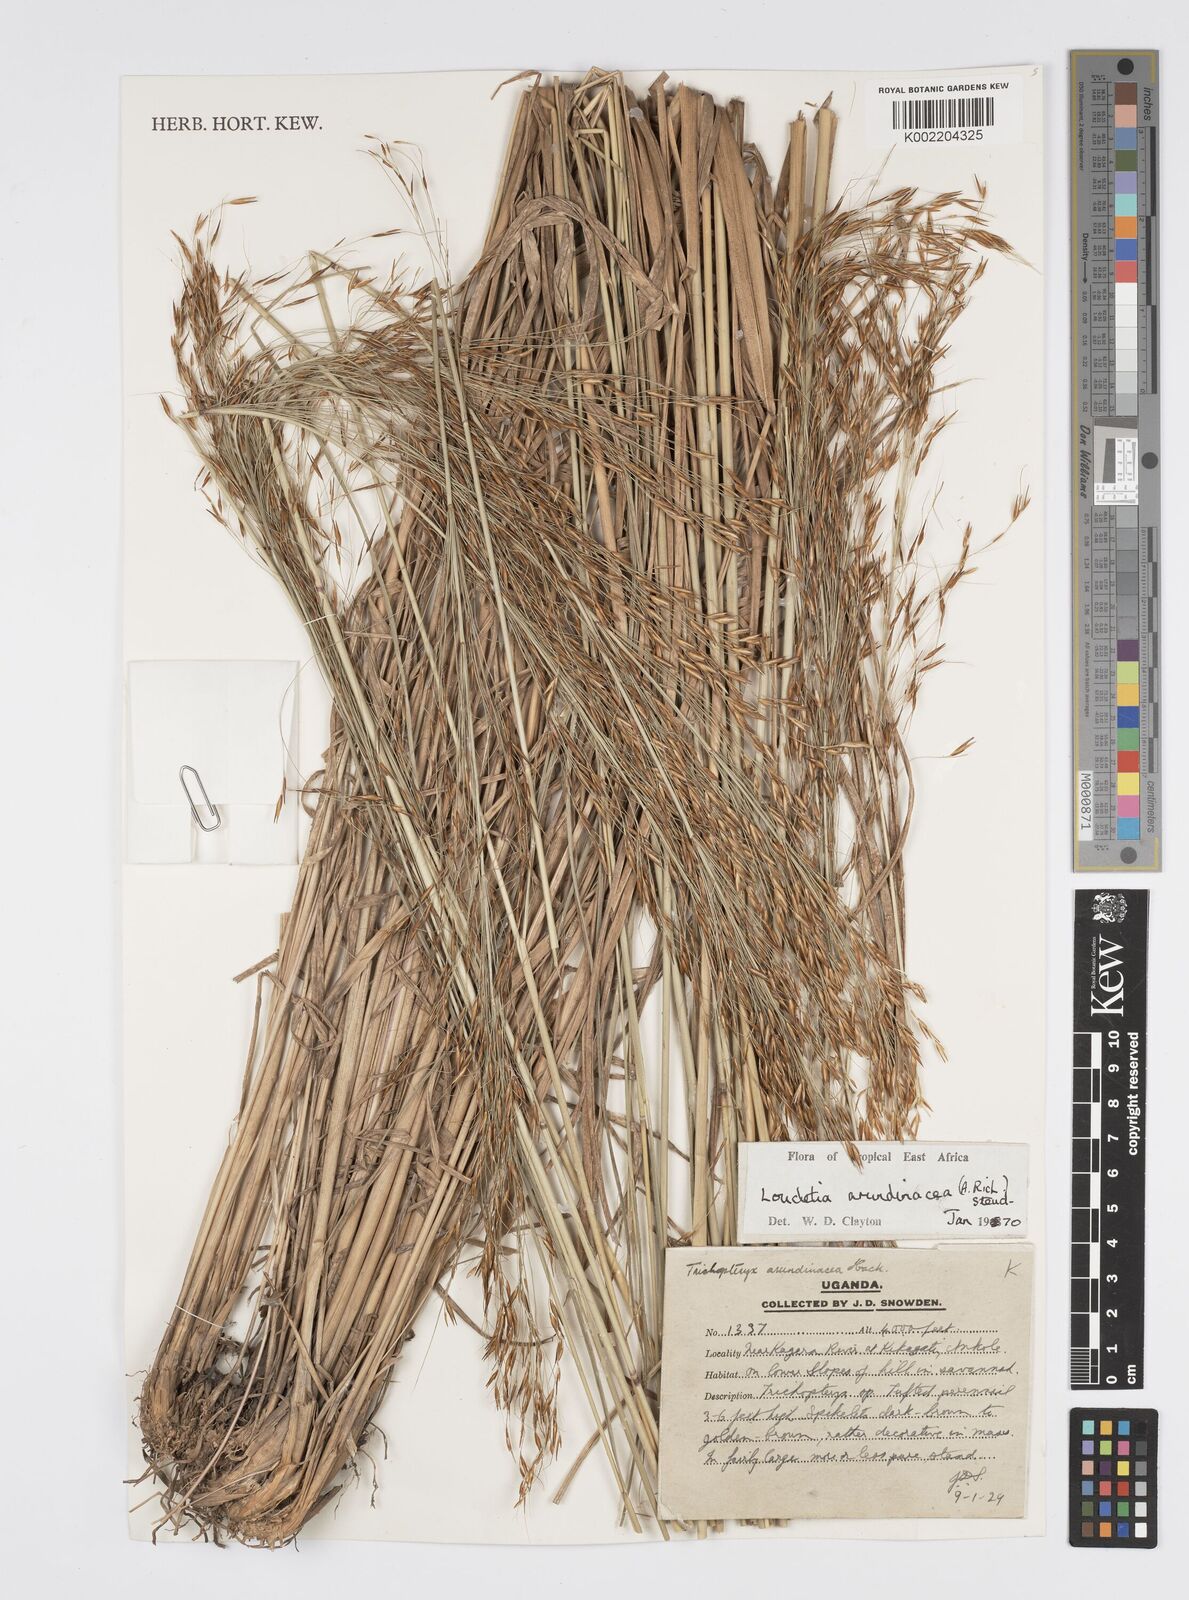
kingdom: Plantae
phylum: Tracheophyta
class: Liliopsida
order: Poales
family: Poaceae
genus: Loudetia
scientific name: Loudetia arundinacea
